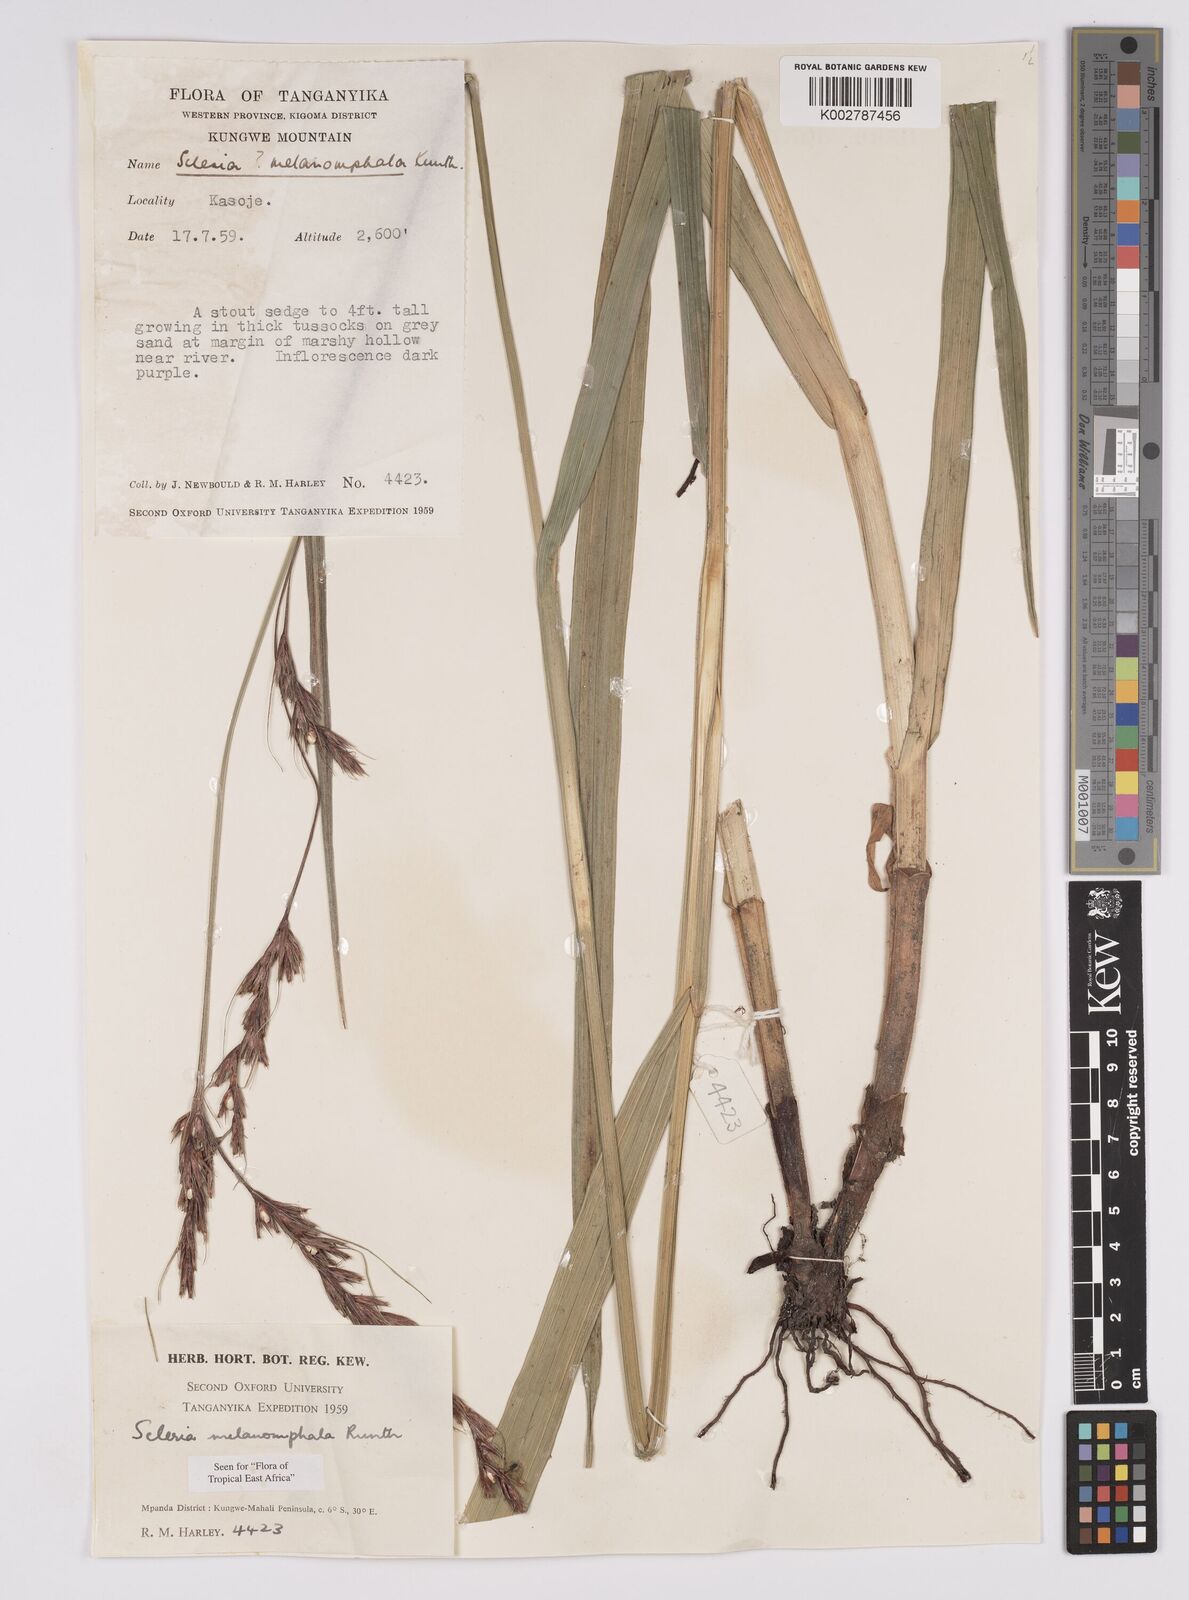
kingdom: Plantae
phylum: Tracheophyta
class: Liliopsida
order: Poales
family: Cyperaceae
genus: Scleria
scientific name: Scleria melanomphala
